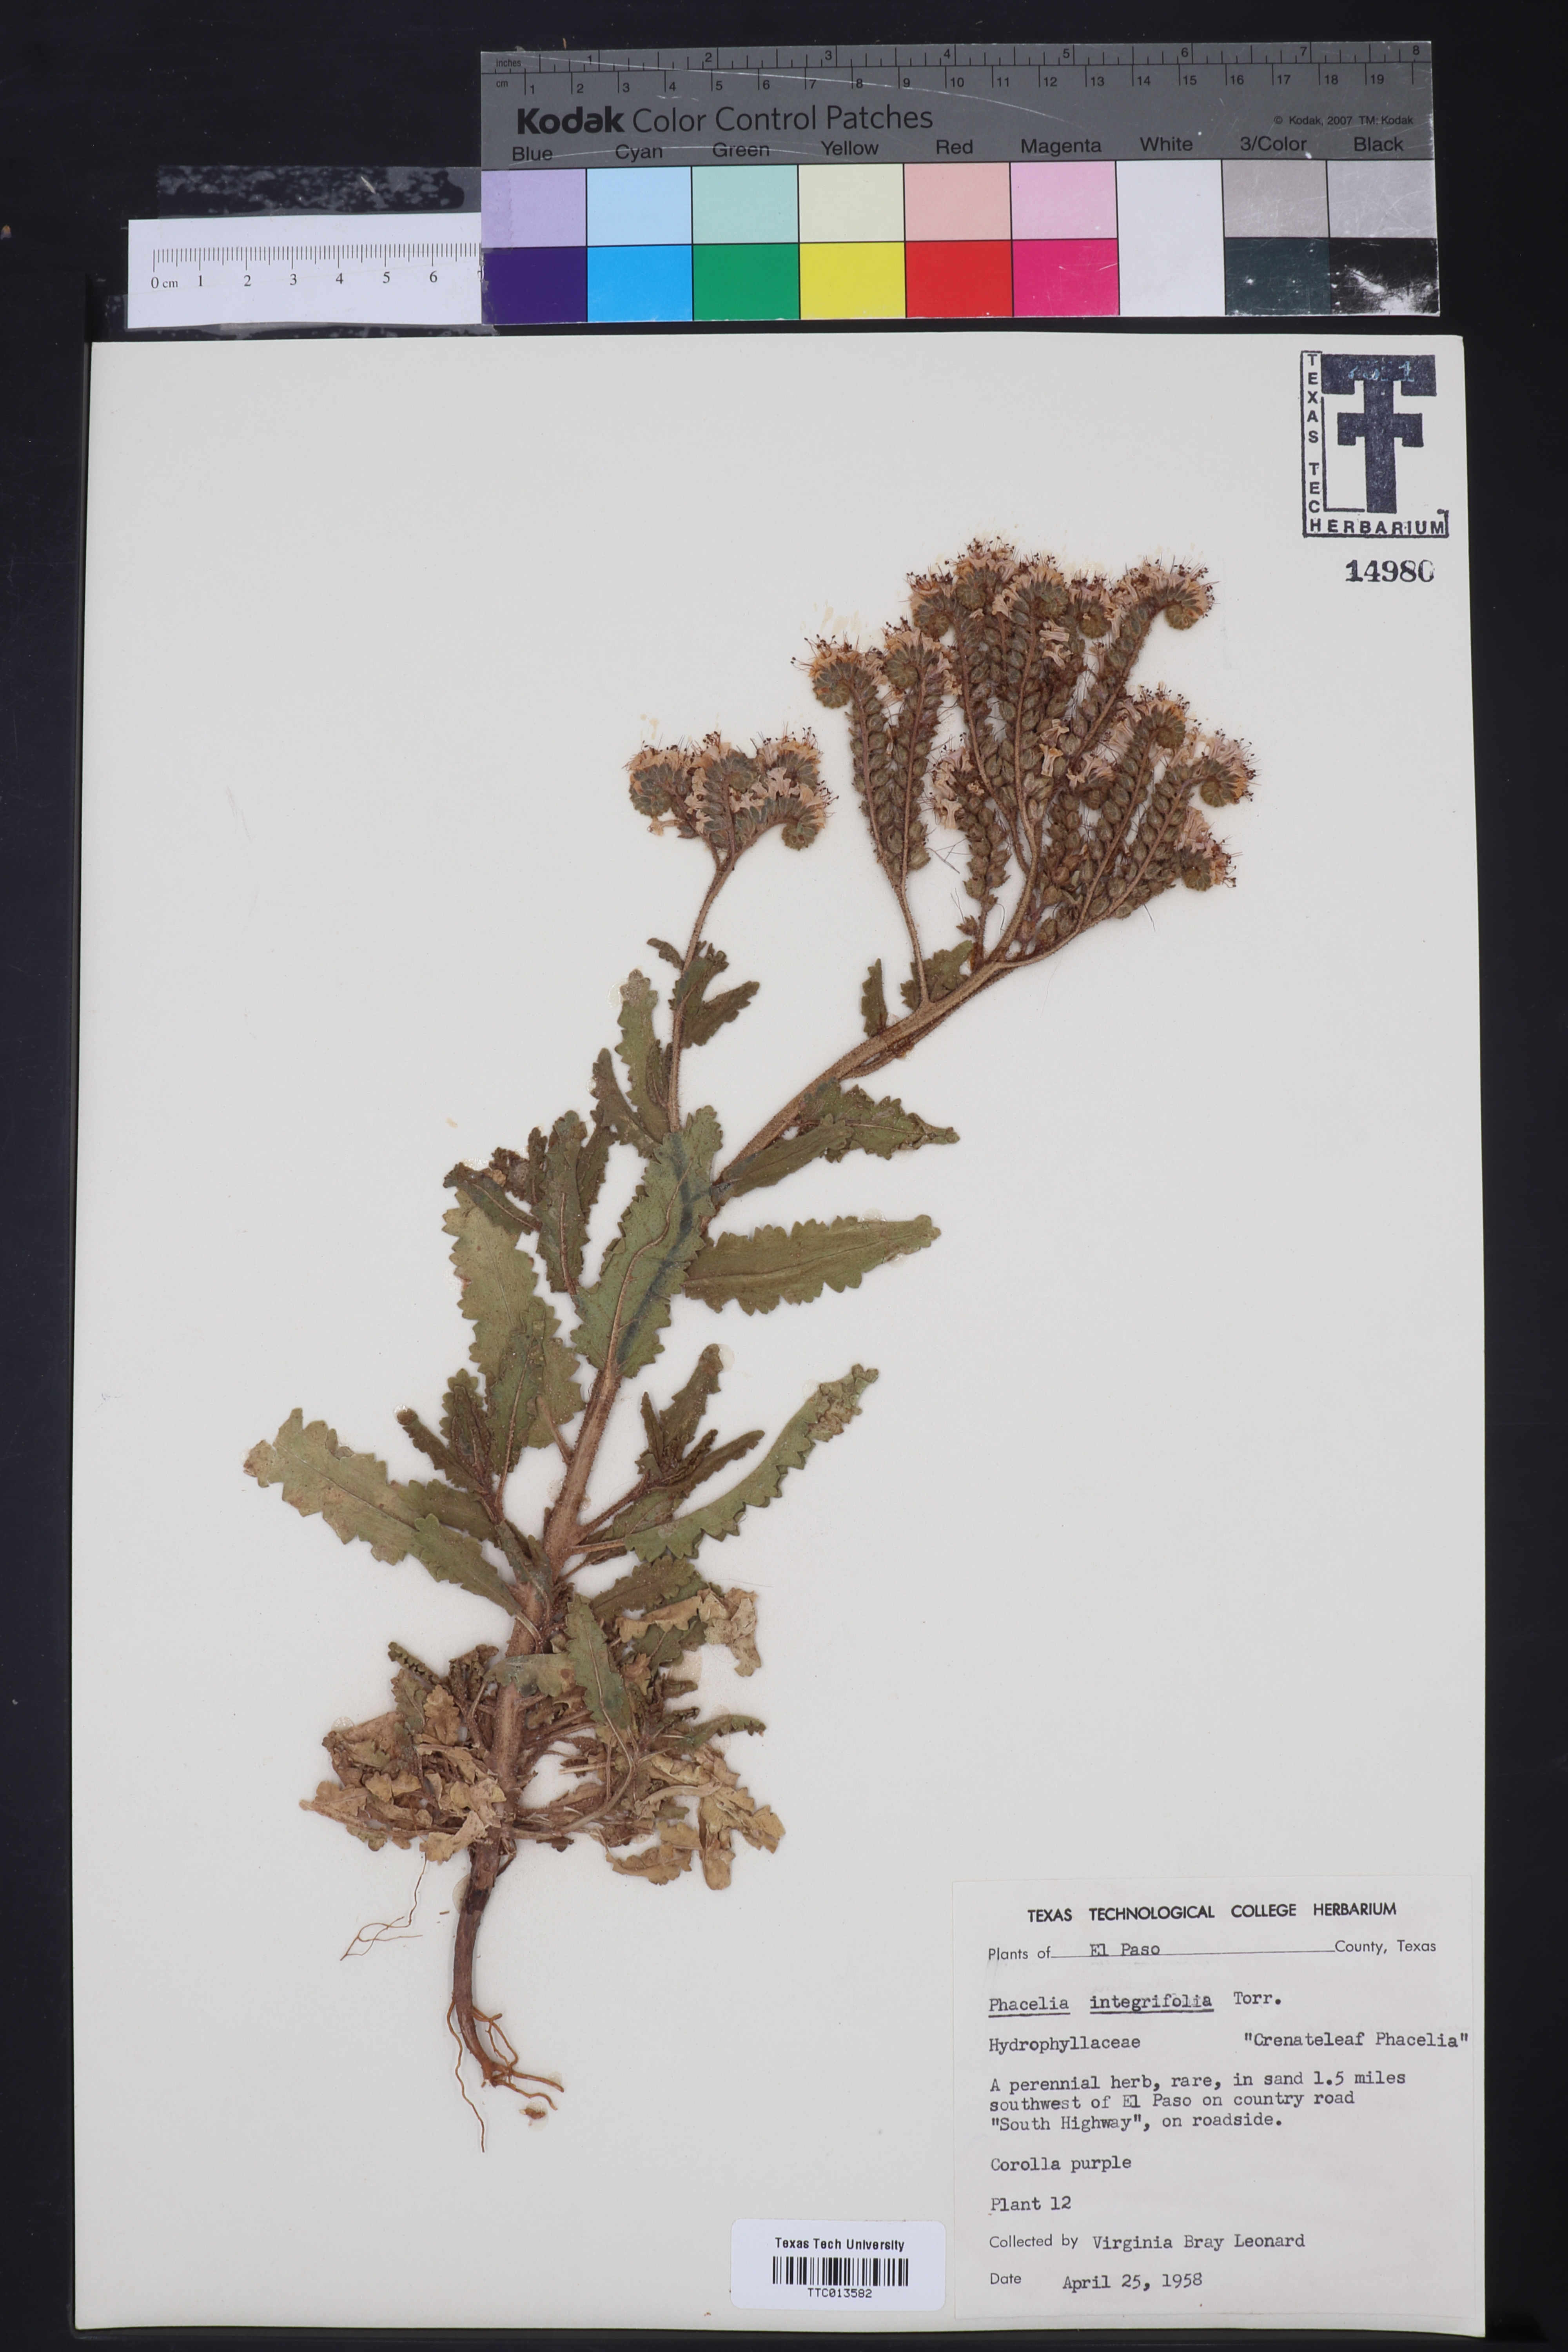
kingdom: Plantae
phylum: Tracheophyta
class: Magnoliopsida
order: Boraginales
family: Hydrophyllaceae
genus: Phacelia
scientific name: Phacelia integrifolia
